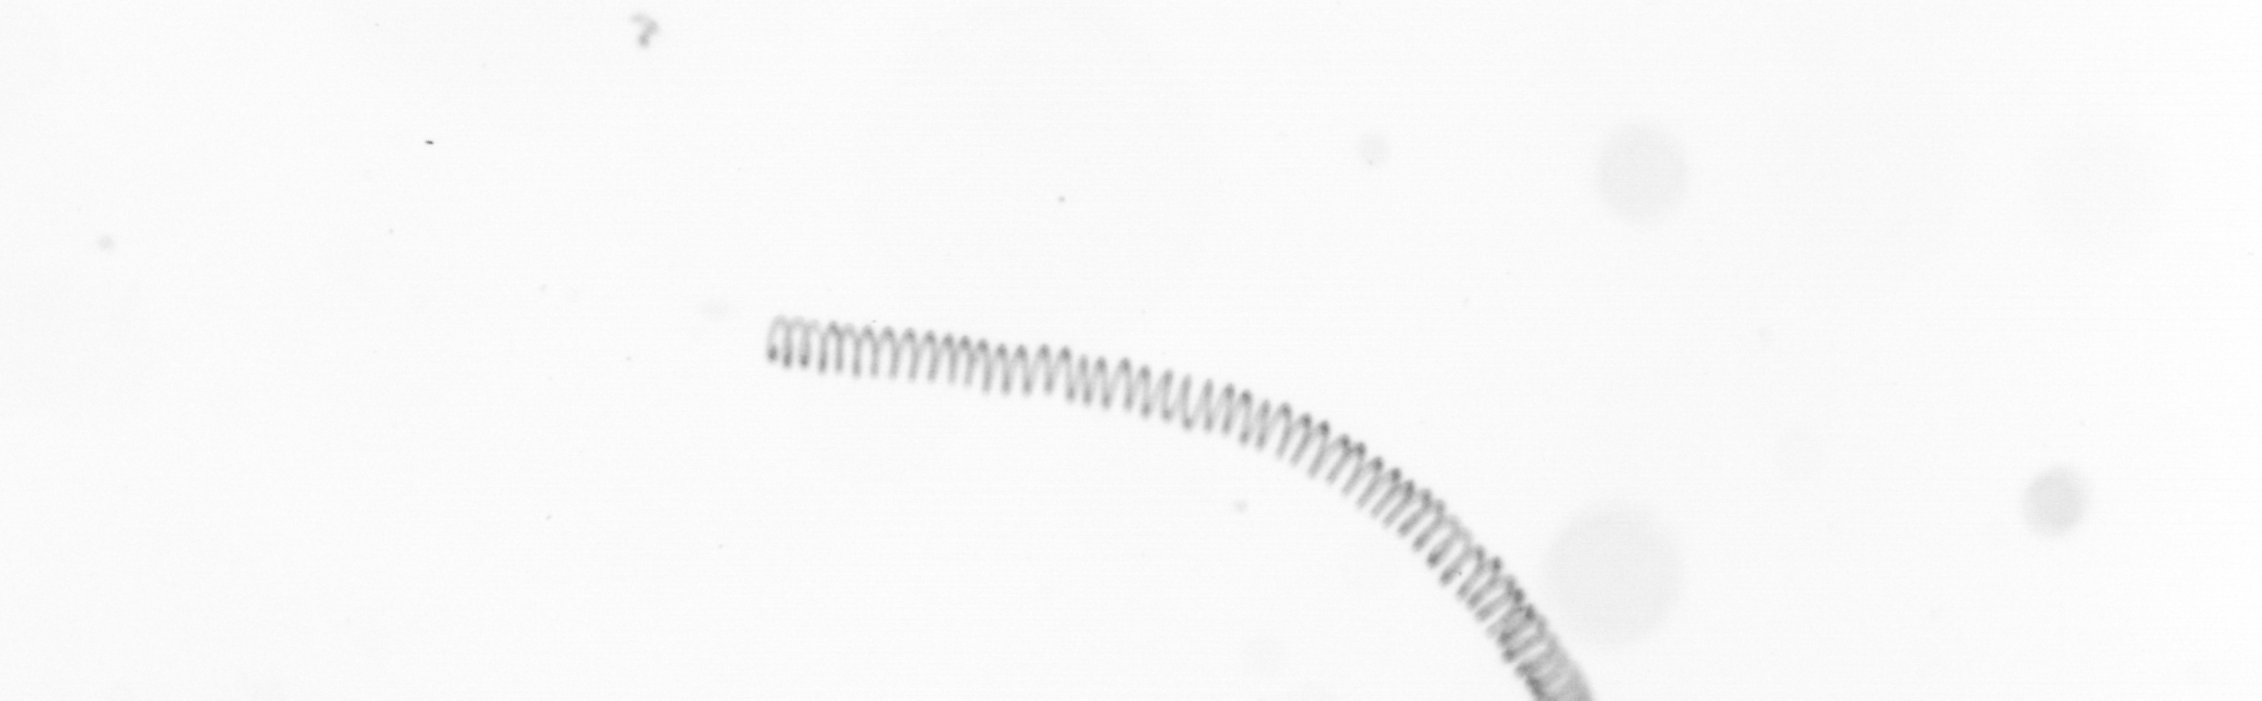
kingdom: Chromista
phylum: Ochrophyta
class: Bacillariophyceae
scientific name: Bacillariophyceae
